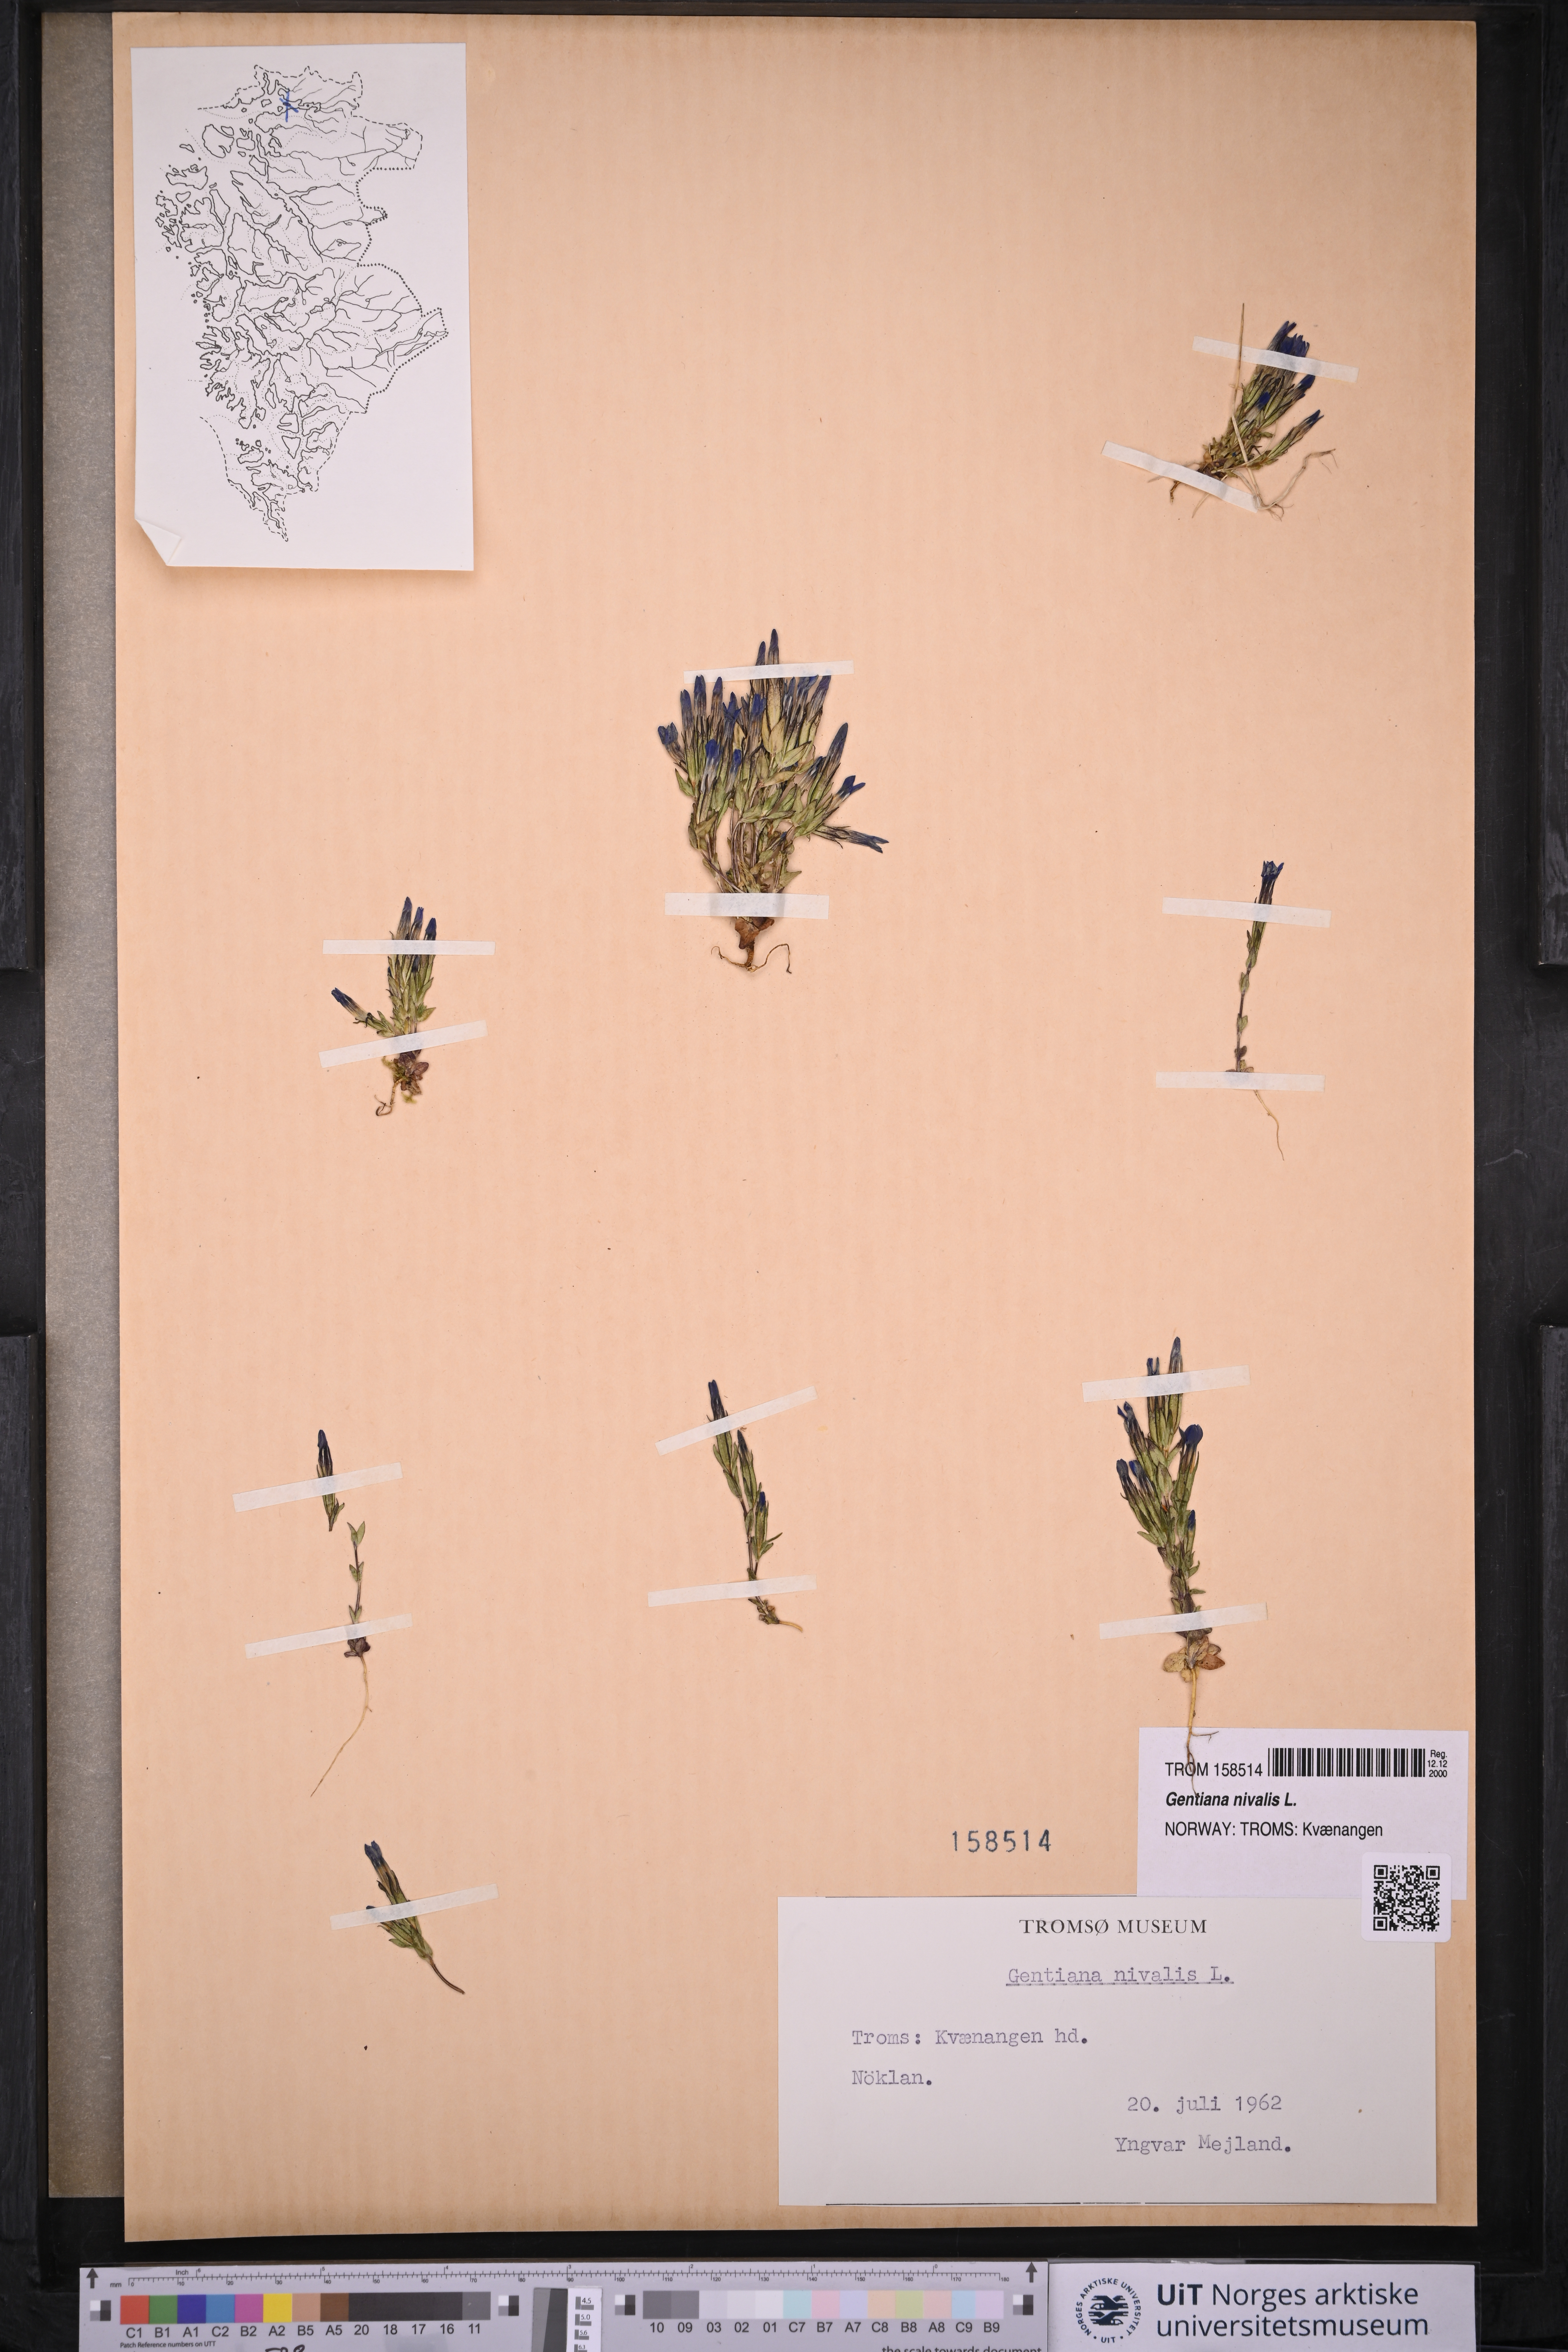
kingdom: Plantae
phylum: Tracheophyta
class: Magnoliopsida
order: Gentianales
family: Gentianaceae
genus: Gentiana
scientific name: Gentiana nivalis
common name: Alpine gentian
